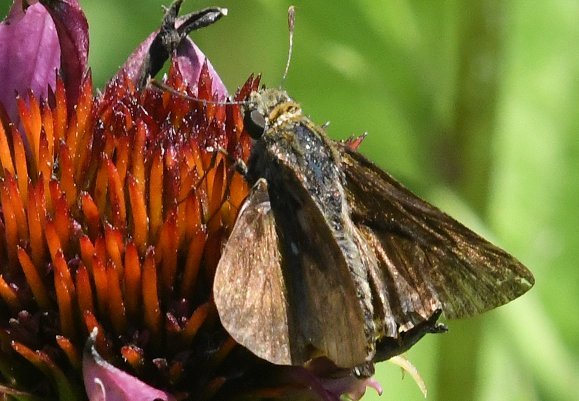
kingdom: Animalia
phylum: Arthropoda
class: Insecta
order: Lepidoptera
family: Hesperiidae
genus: Euphyes
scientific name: Euphyes vestris
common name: Dun Skipper
